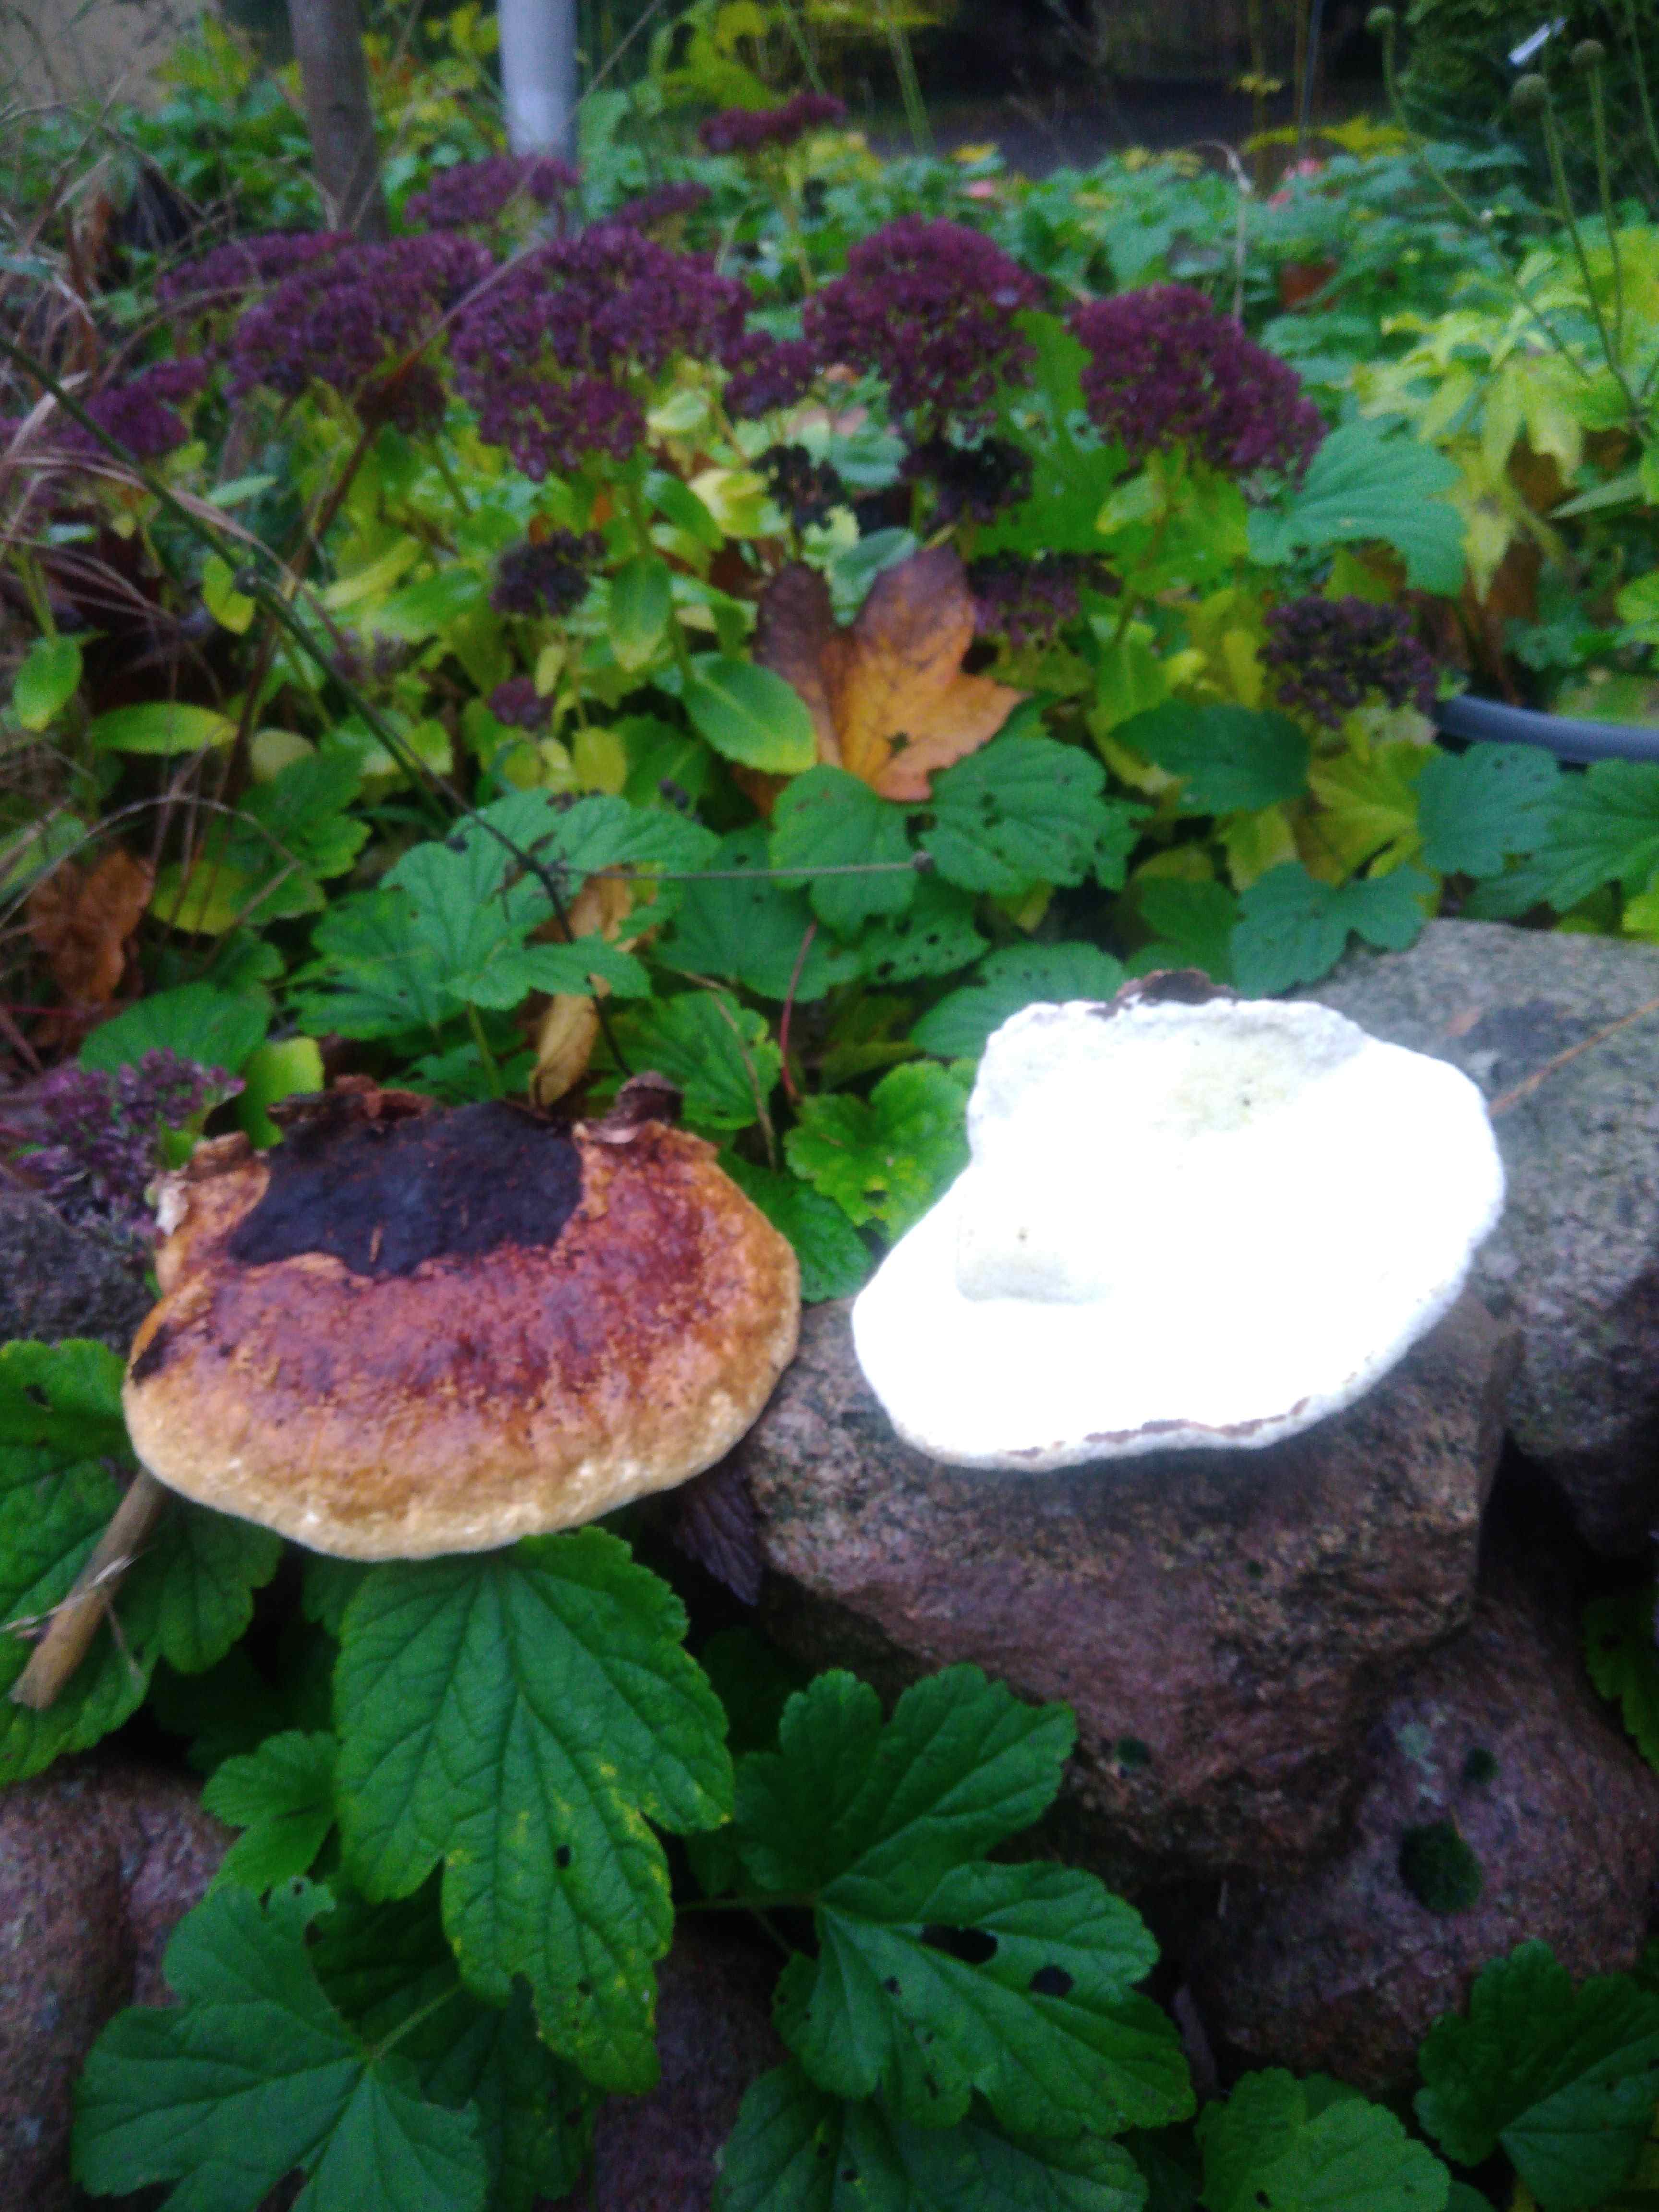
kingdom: Fungi
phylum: Basidiomycota
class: Agaricomycetes
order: Polyporales
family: Fomitopsidaceae
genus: Fomitopsis
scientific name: Fomitopsis pinicola
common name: randbæltet hovporesvamp
